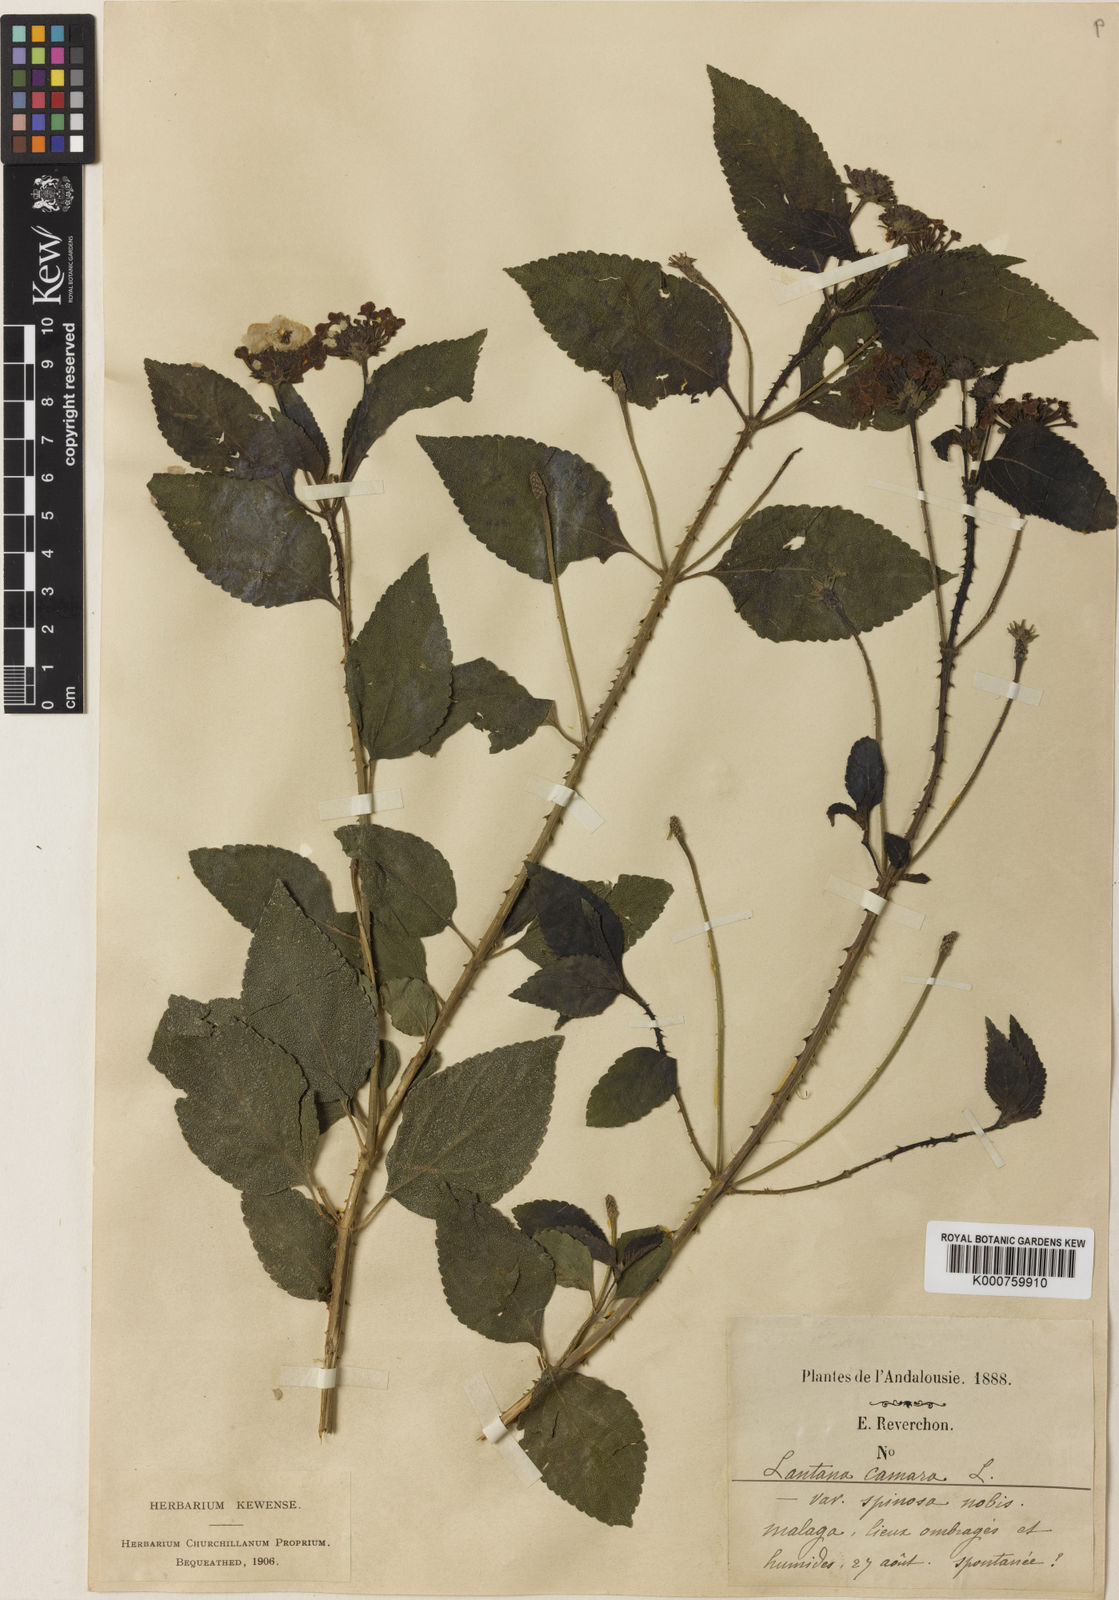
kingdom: Plantae
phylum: Tracheophyta
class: Magnoliopsida
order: Lamiales
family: Verbenaceae
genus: Lantana
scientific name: Lantana camara
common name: Lantana
